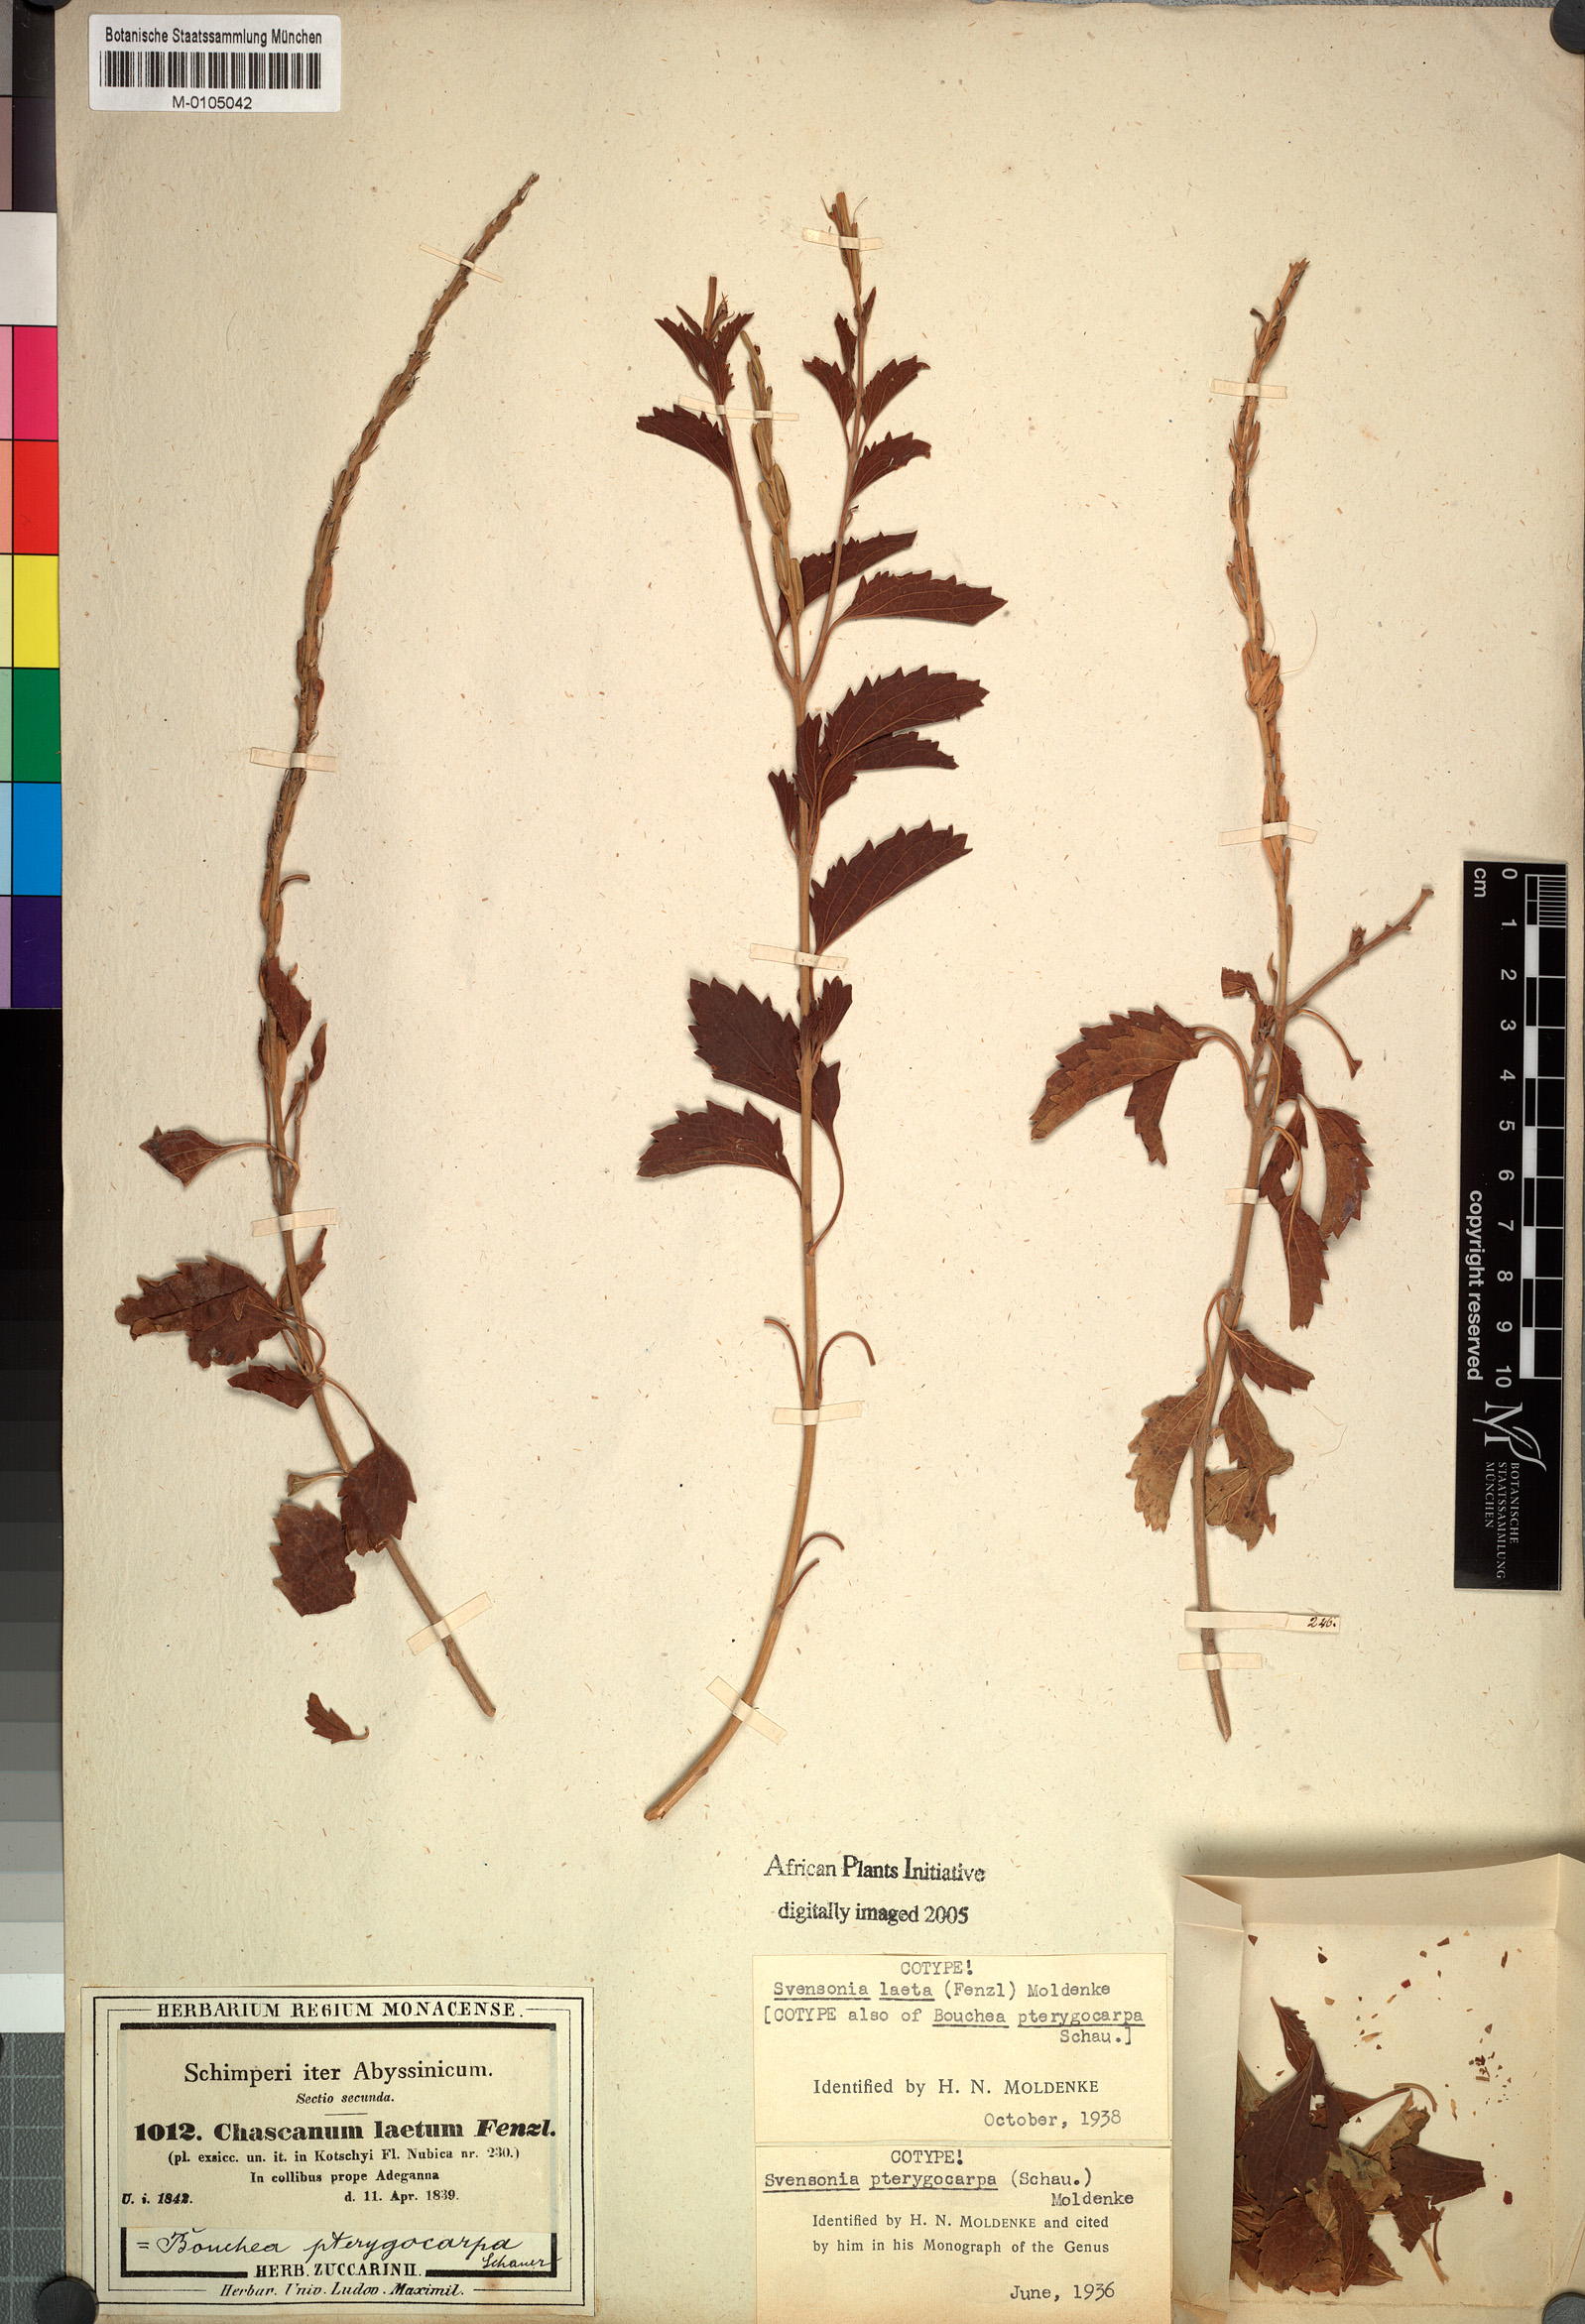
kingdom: Plantae
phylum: Tracheophyta
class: Magnoliopsida
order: Lamiales
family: Verbenaceae
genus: Chascanum
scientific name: Chascanum laetum
